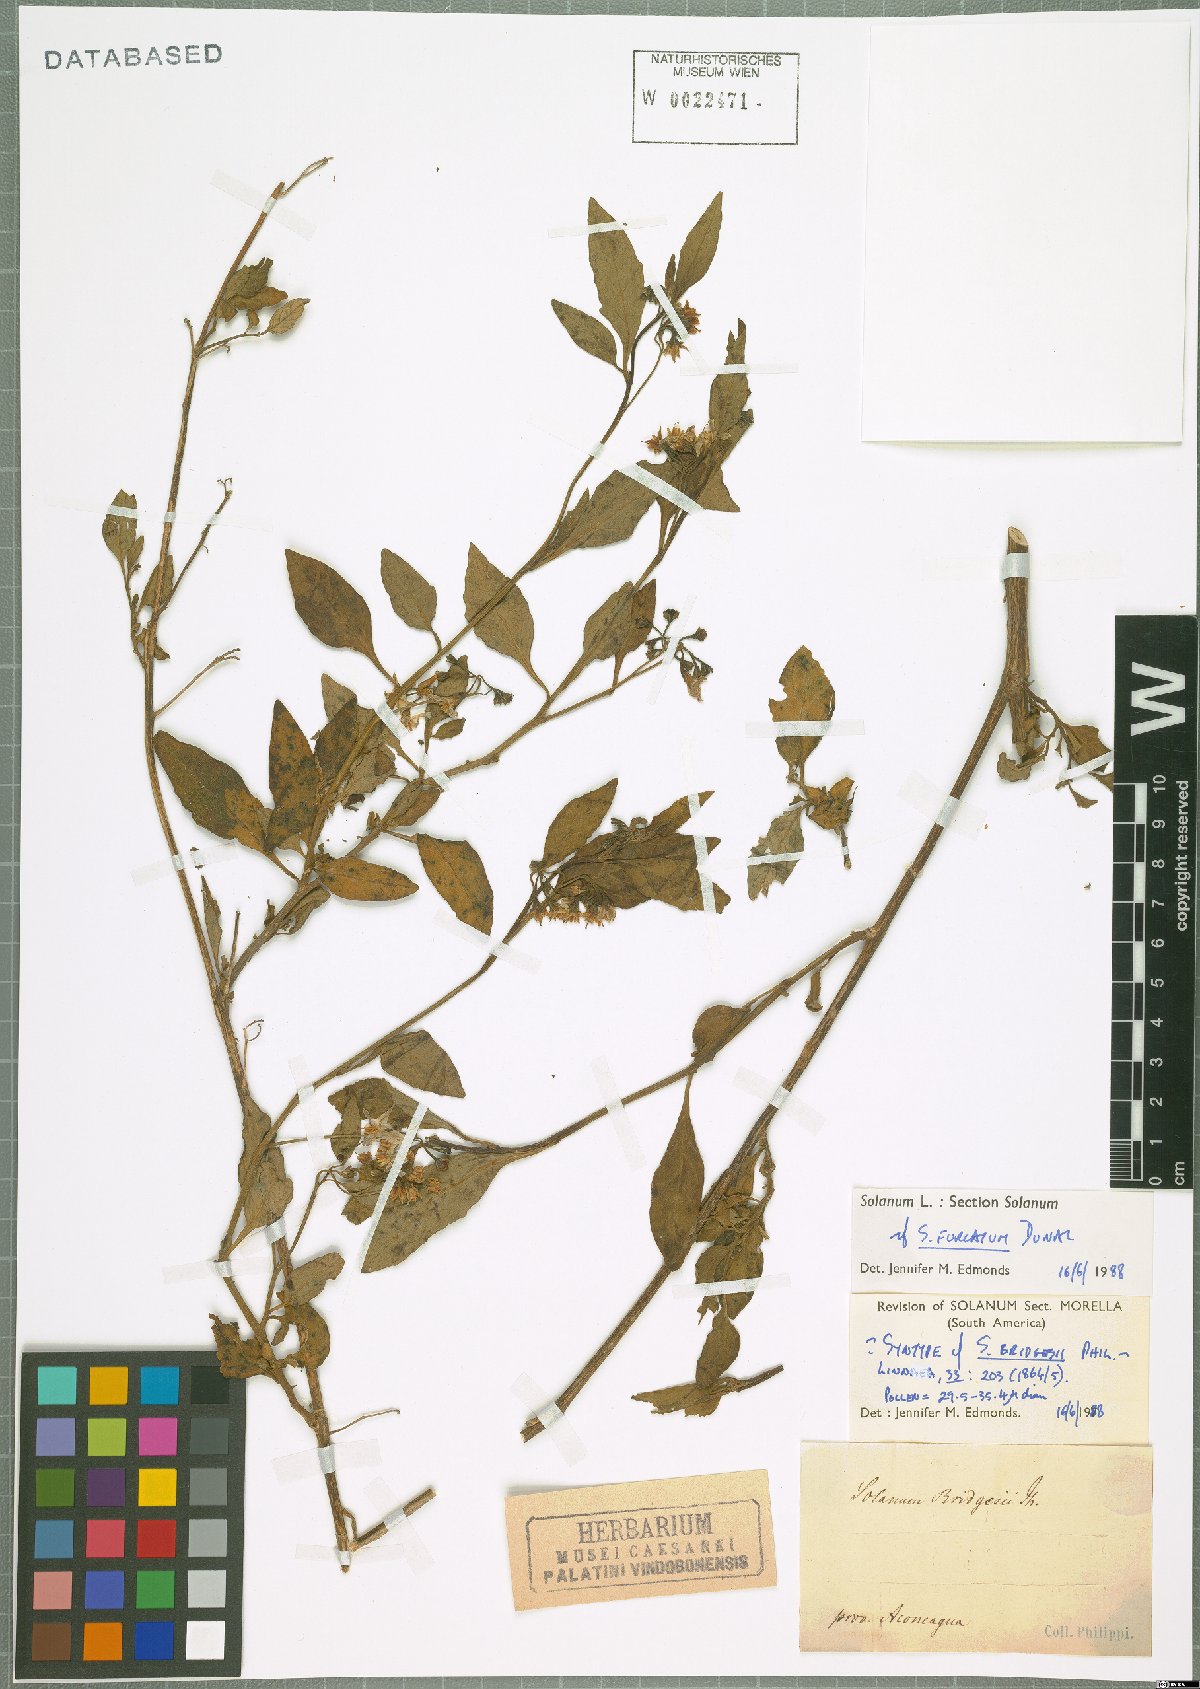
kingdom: Plantae
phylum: Tracheophyta
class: Magnoliopsida
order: Solanales
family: Solanaceae
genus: Solanum
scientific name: Solanum furcatum
